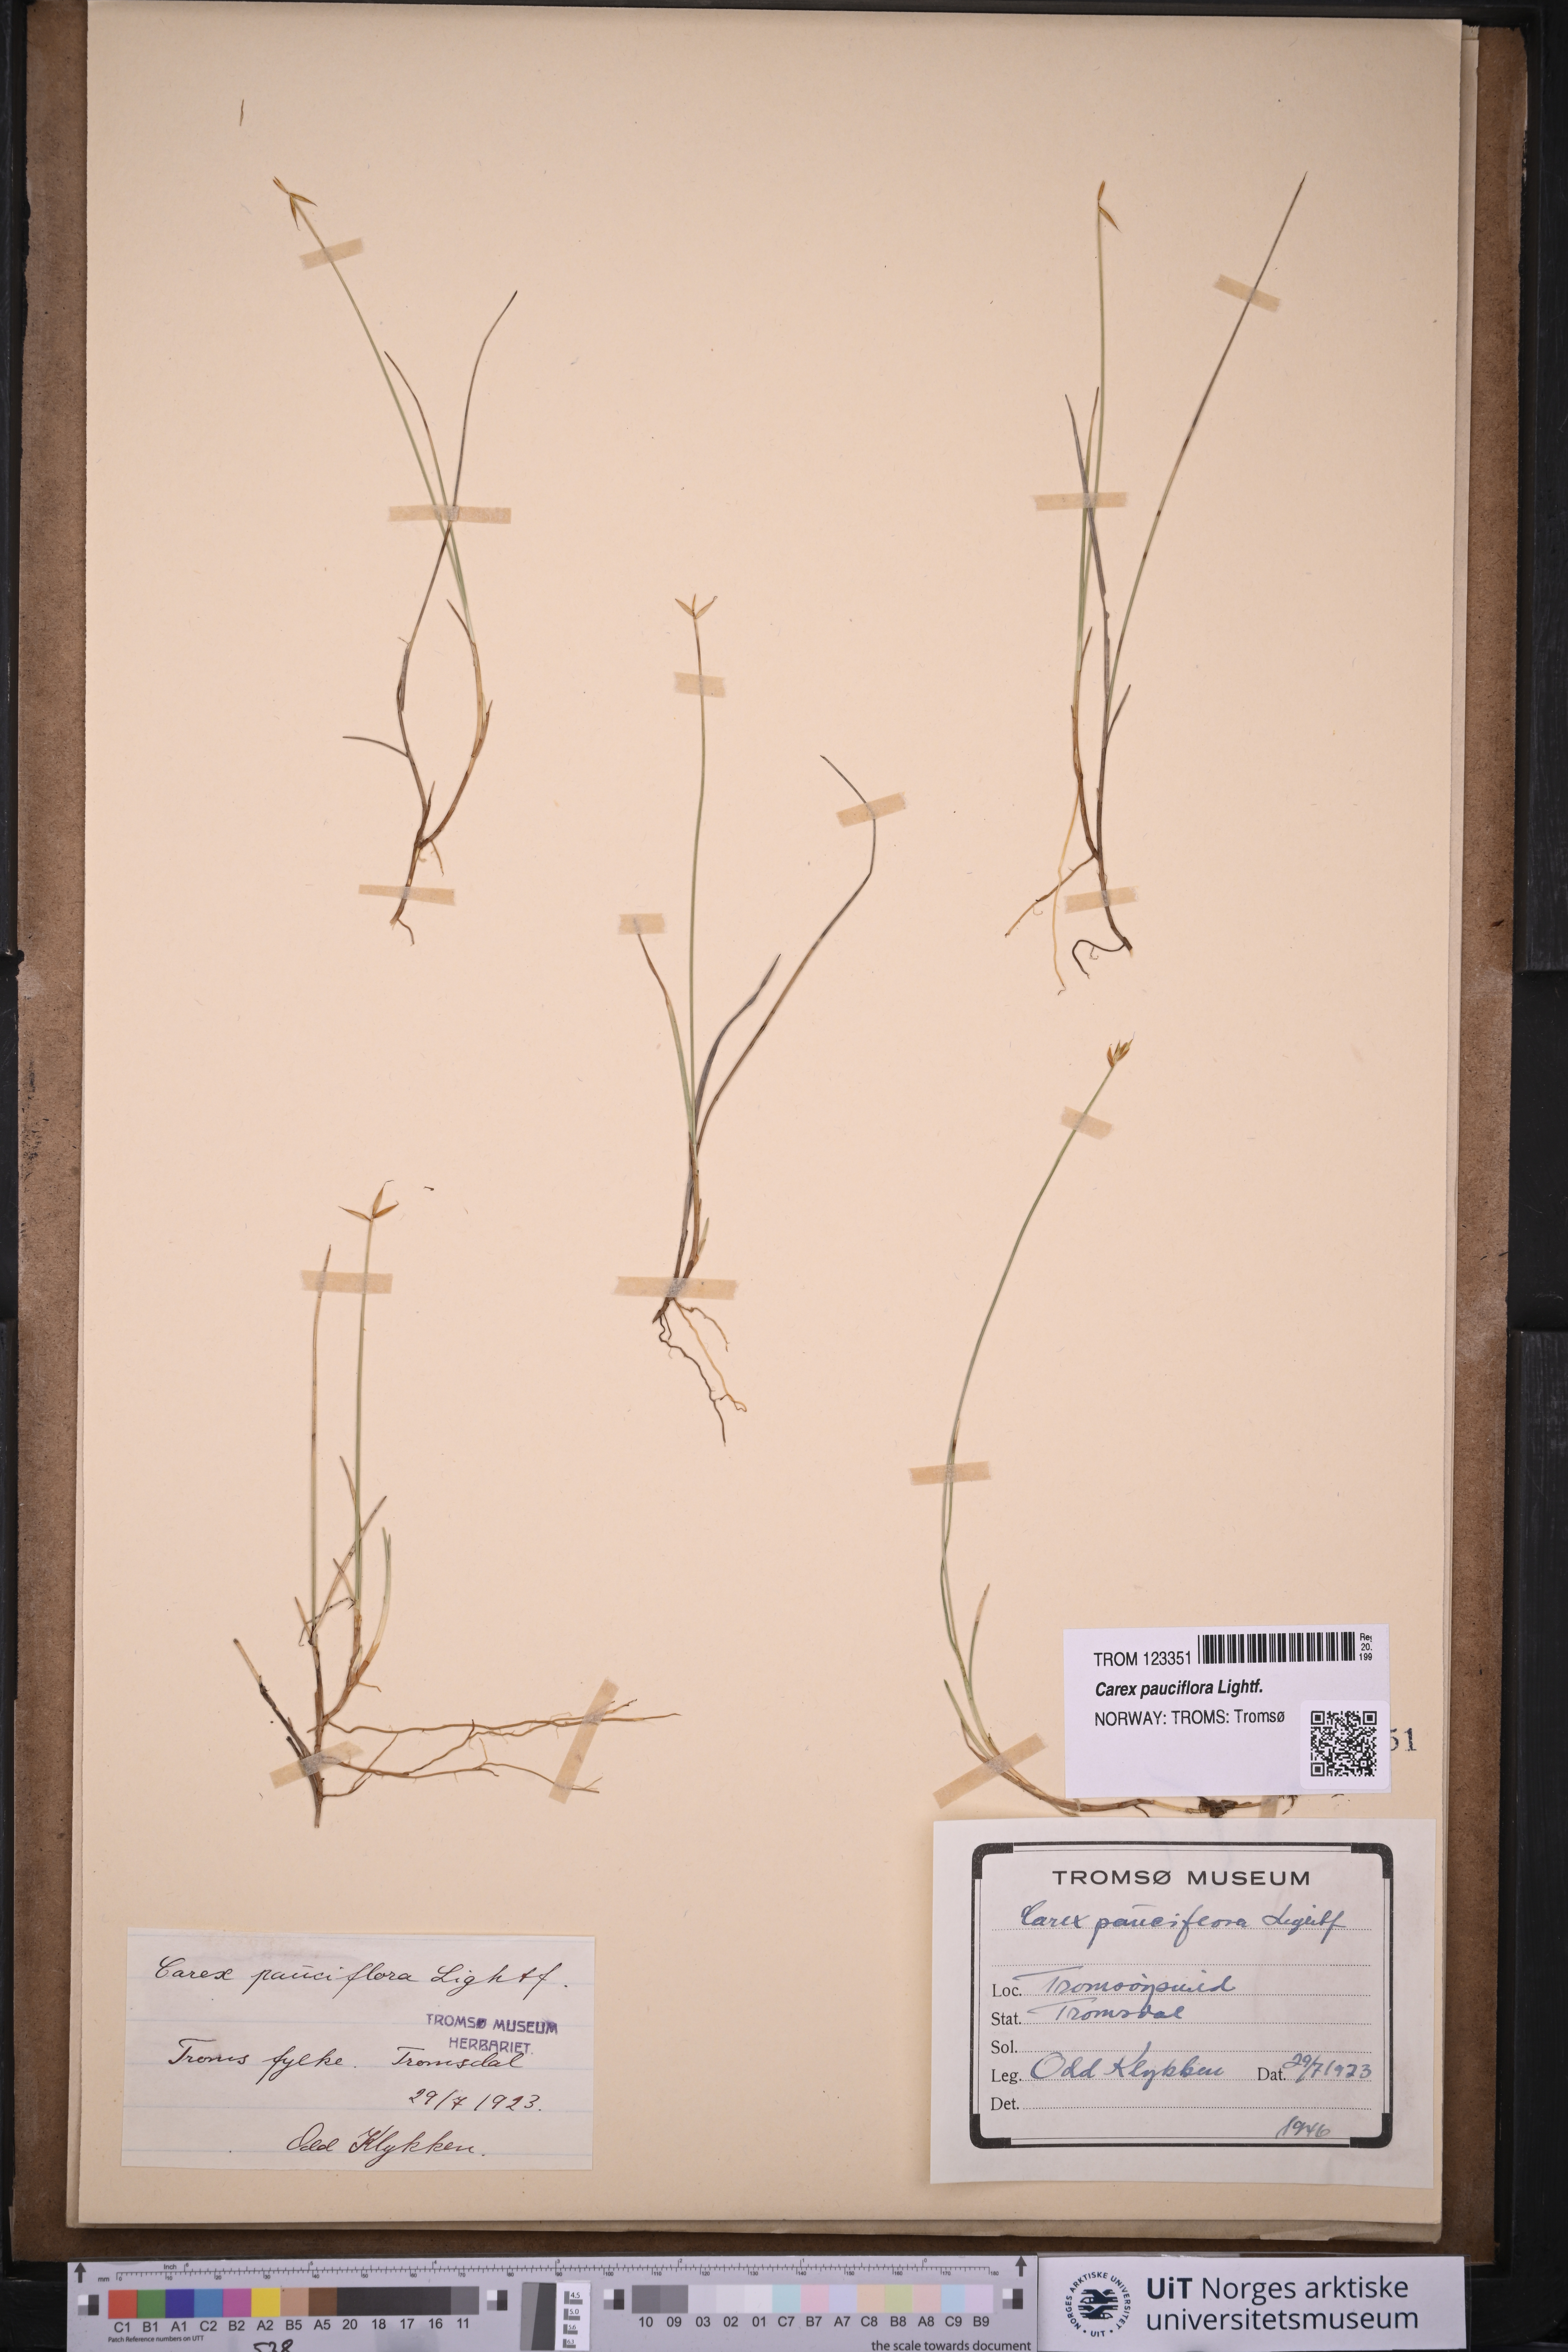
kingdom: Plantae
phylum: Tracheophyta
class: Liliopsida
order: Poales
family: Cyperaceae
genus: Carex
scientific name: Carex pauciflora
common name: Few-flowered sedge
